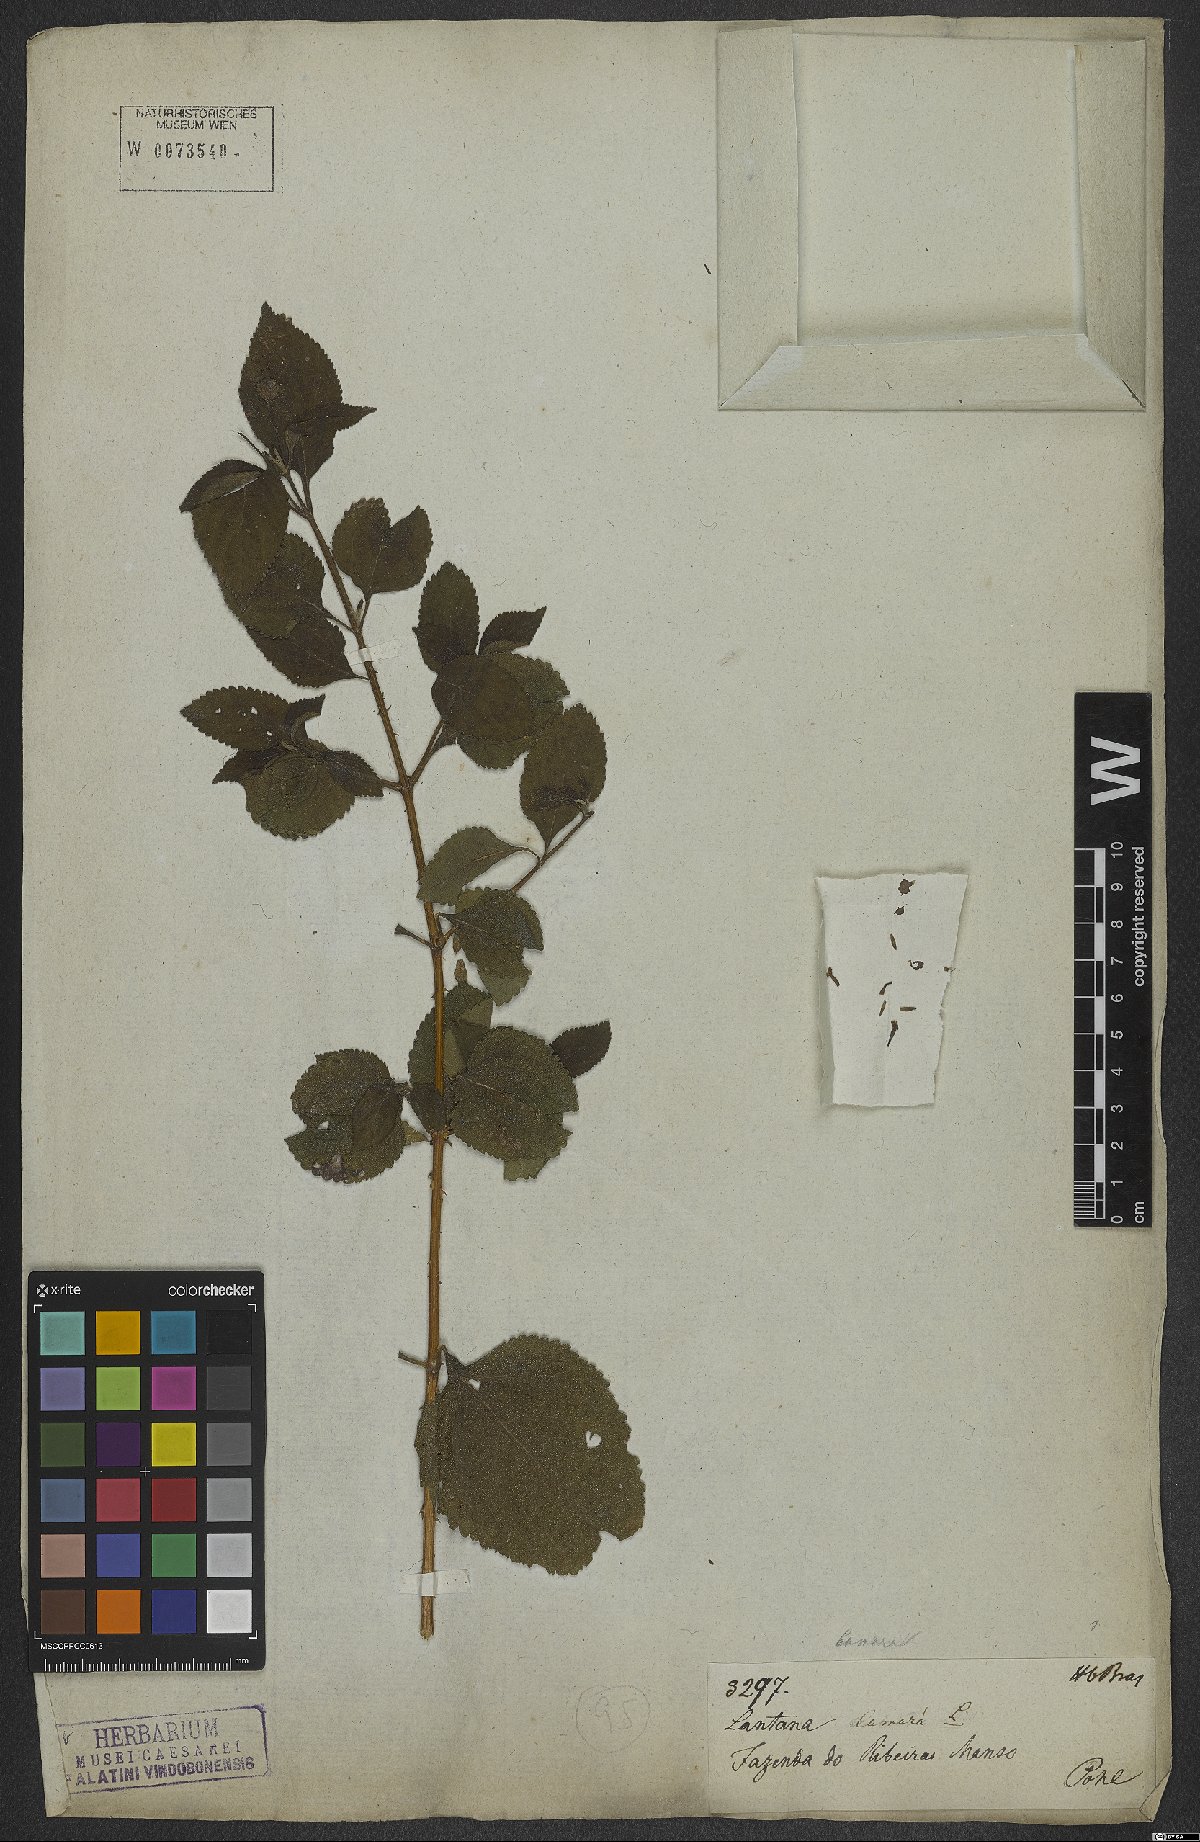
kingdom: Plantae
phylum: Tracheophyta
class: Magnoliopsida
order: Lamiales
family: Verbenaceae
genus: Lantana
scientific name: Lantana camara
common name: Lantana
